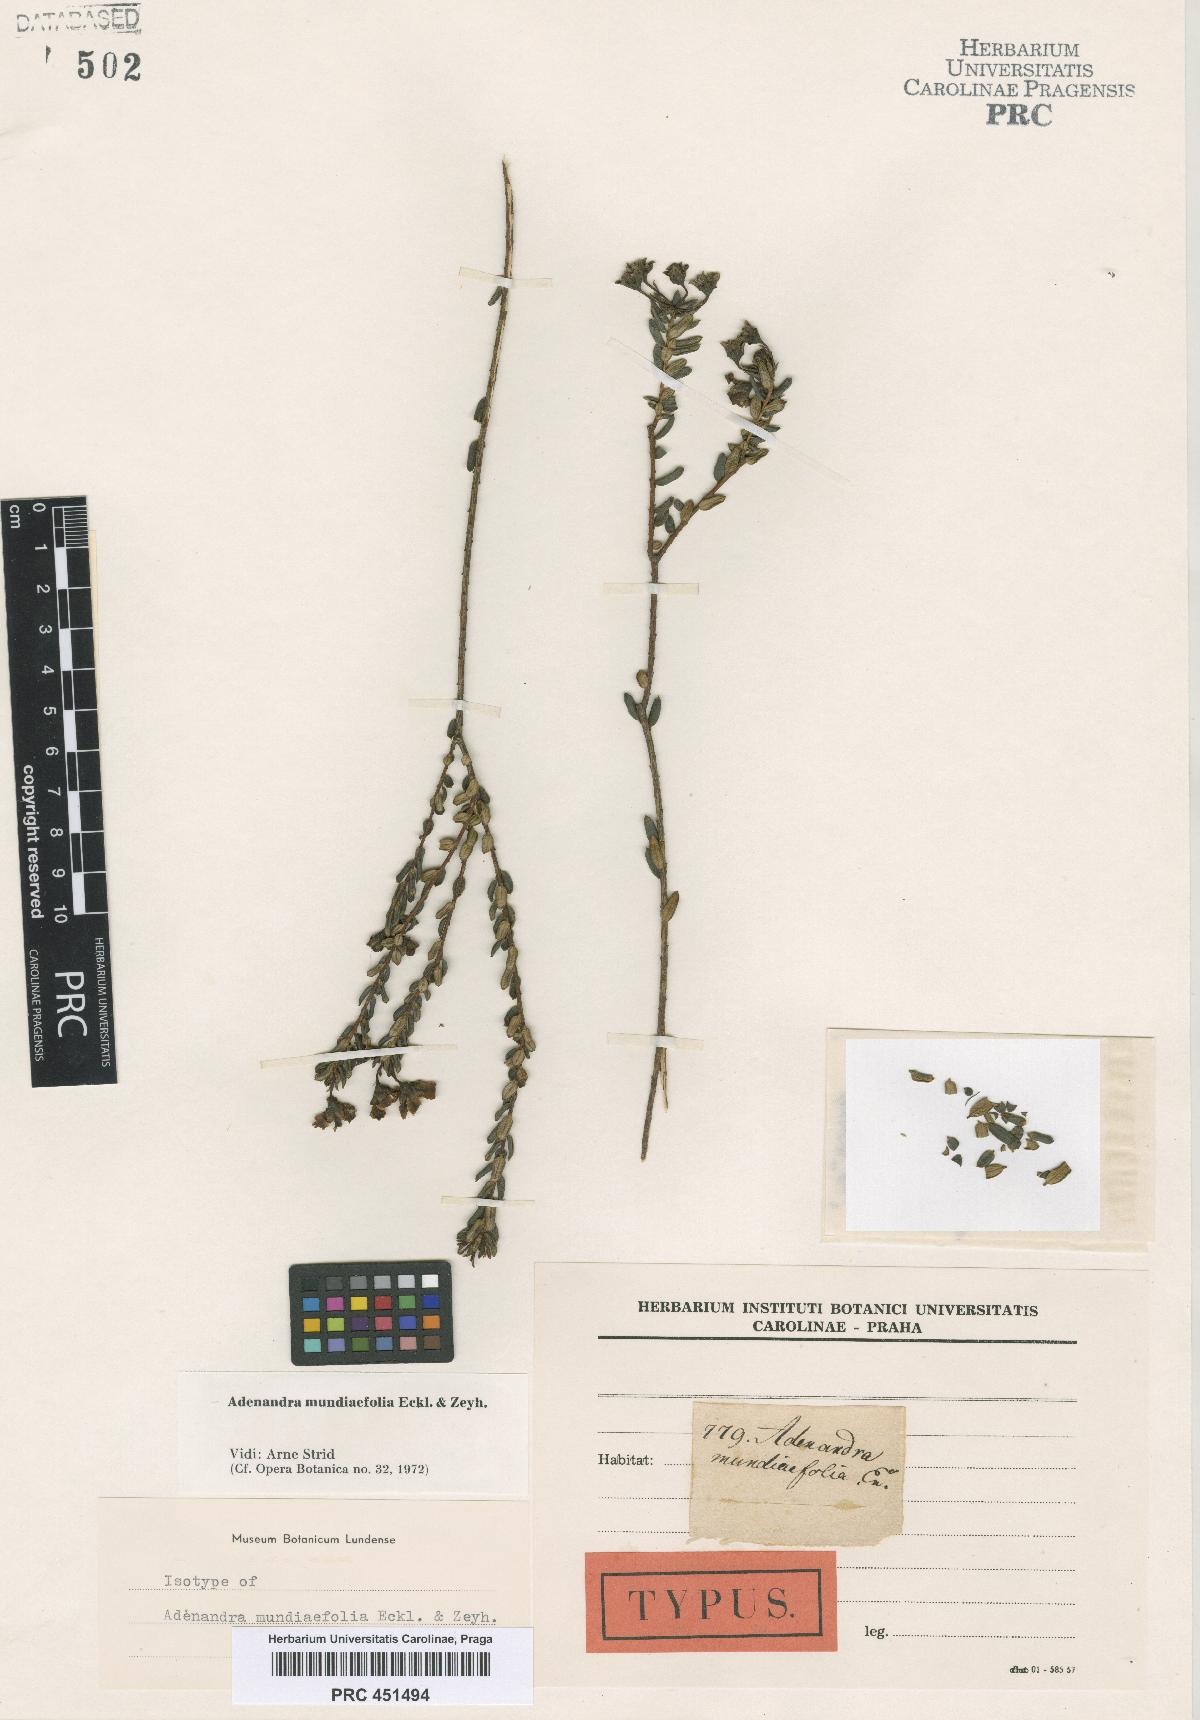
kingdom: Plantae
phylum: Tracheophyta
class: Magnoliopsida
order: Sapindales
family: Rutaceae
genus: Adenandra
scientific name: Adenandra mundiaefolia
